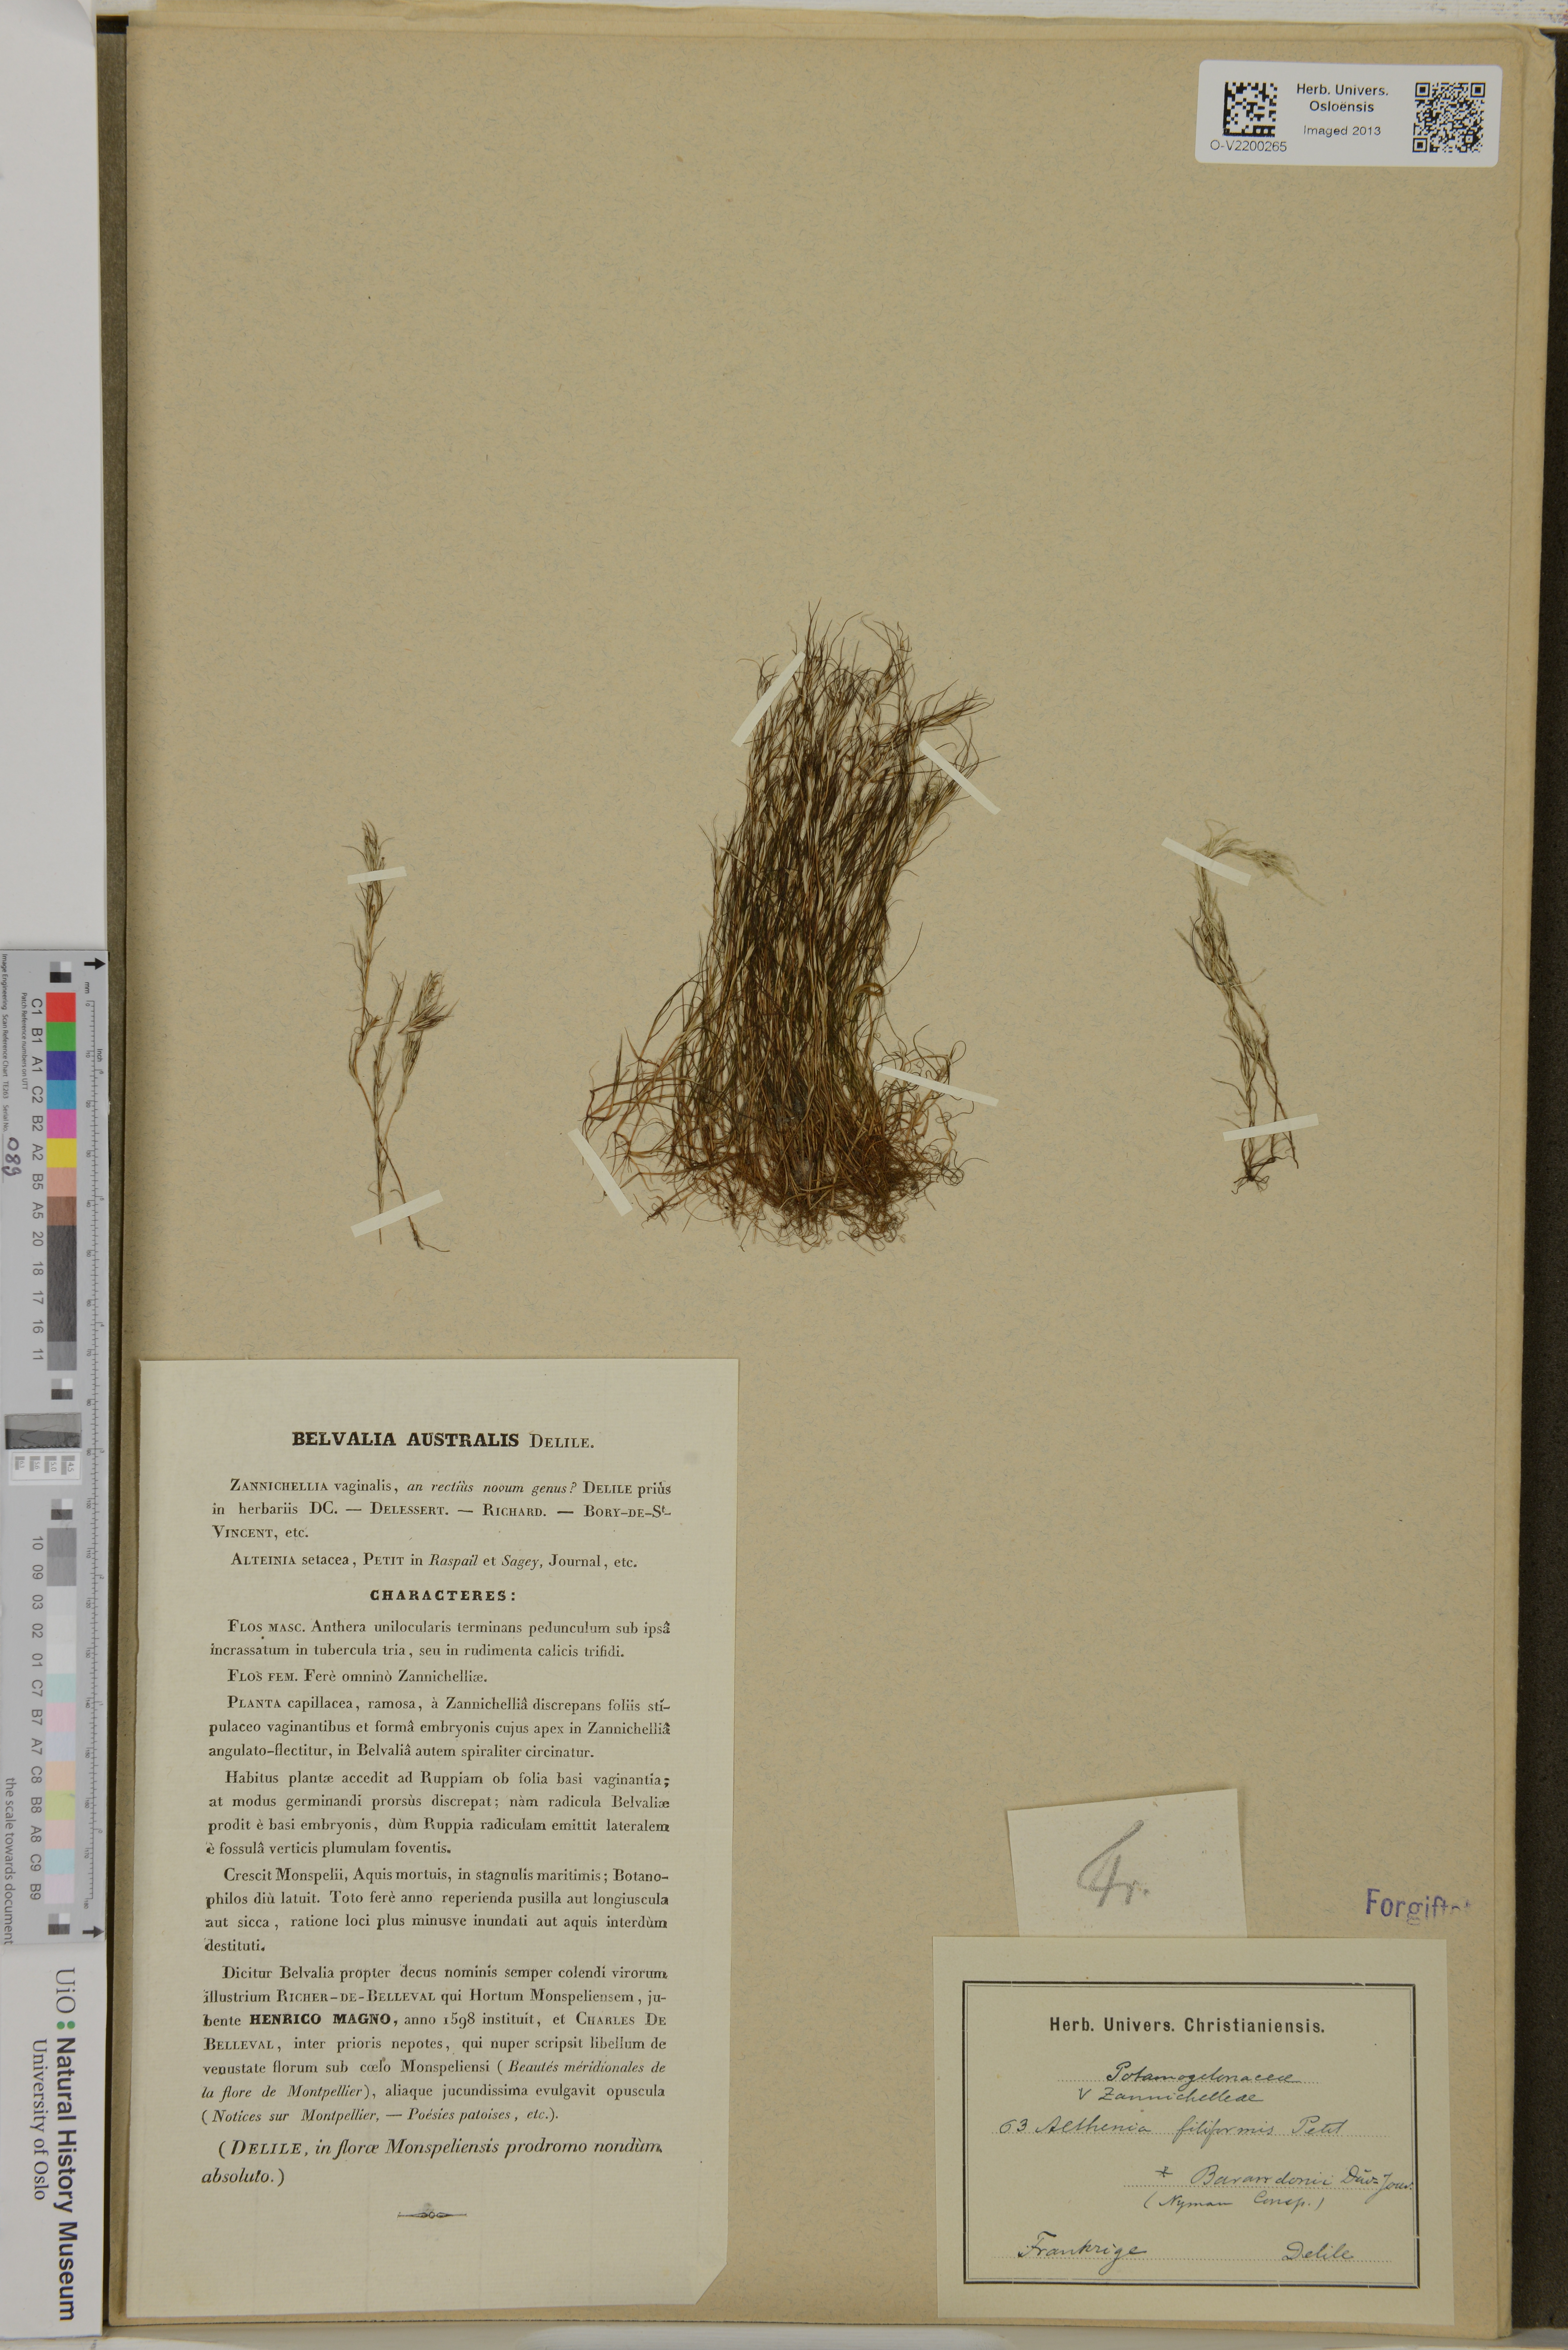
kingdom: Plantae
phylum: Tracheophyta
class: Liliopsida
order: Alismatales
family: Potamogetonaceae
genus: Althenia
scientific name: Althenia filiformis
